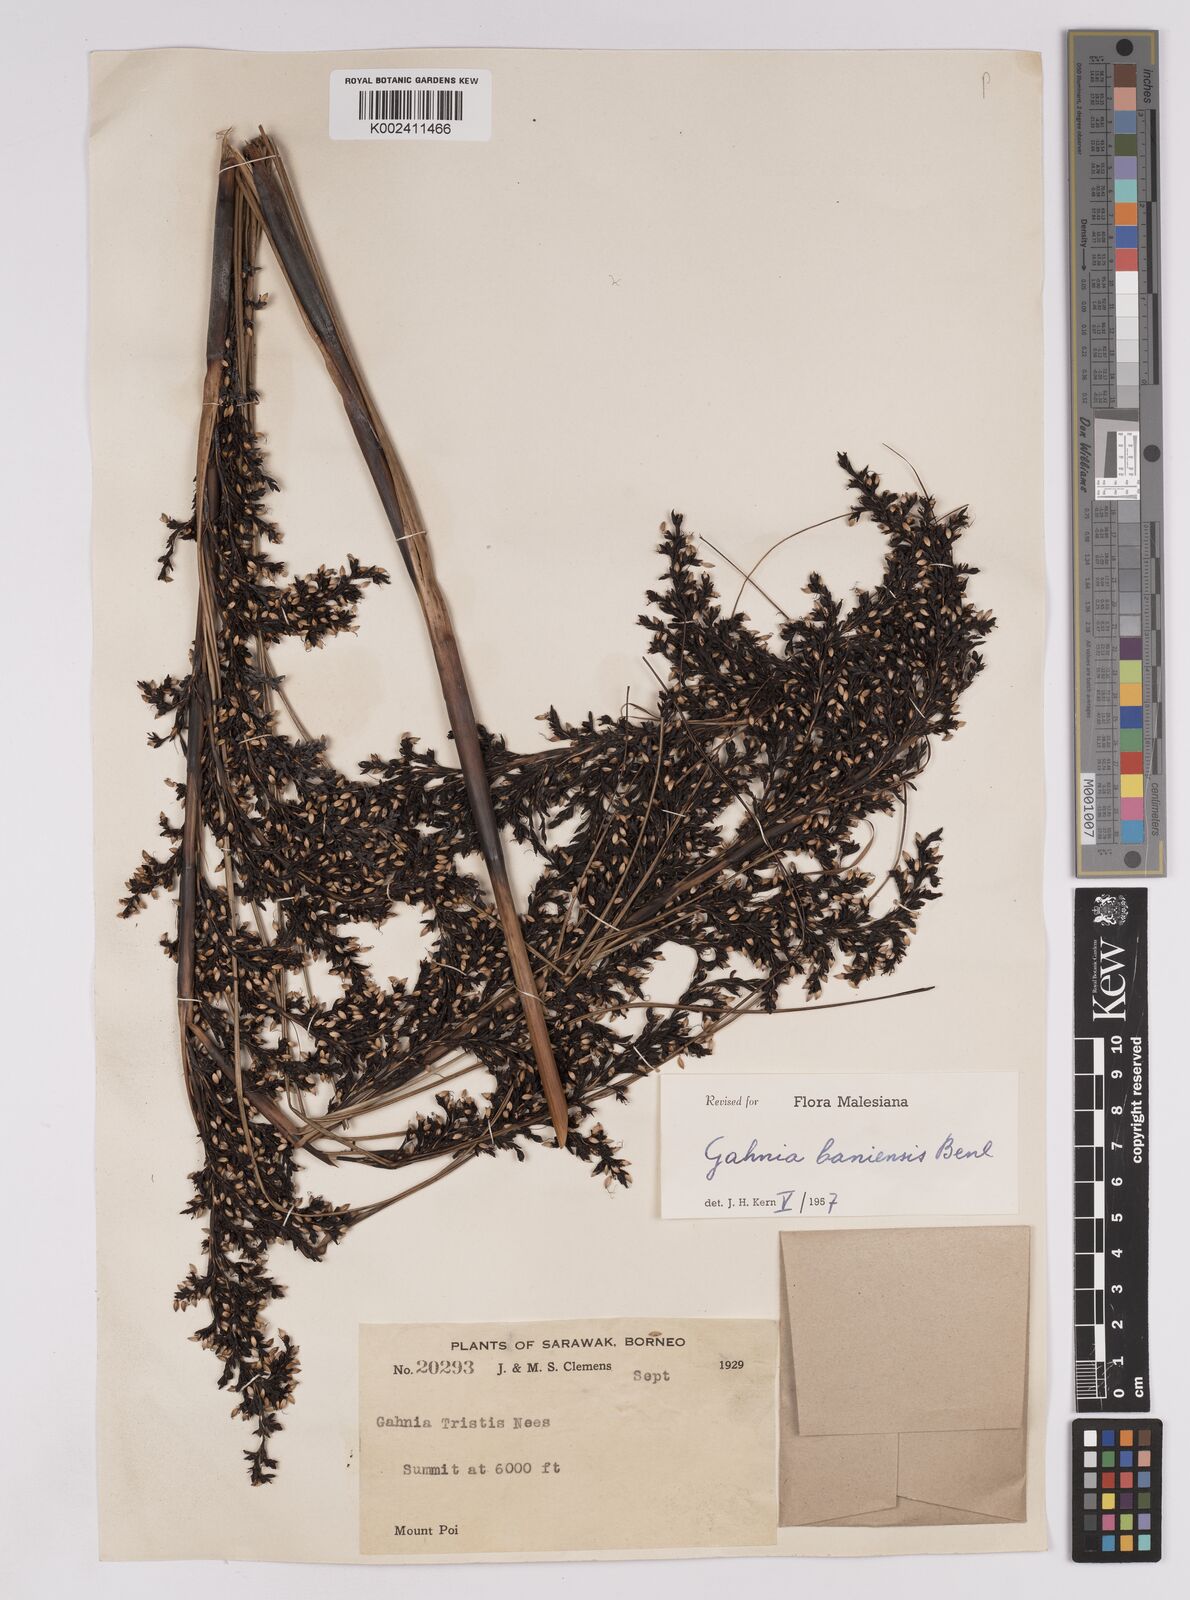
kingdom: Plantae
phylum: Tracheophyta
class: Liliopsida
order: Poales
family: Cyperaceae
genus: Gahnia
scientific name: Gahnia javanica
